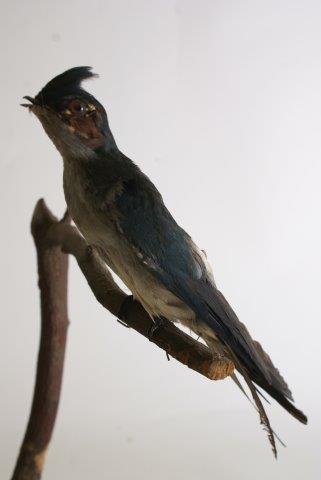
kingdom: Animalia
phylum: Chordata
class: Aves
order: Apodiformes
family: Hemiprocnidae
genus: Hemiprocne
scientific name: Hemiprocne longipennis
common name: Grey-rumped treeswift
